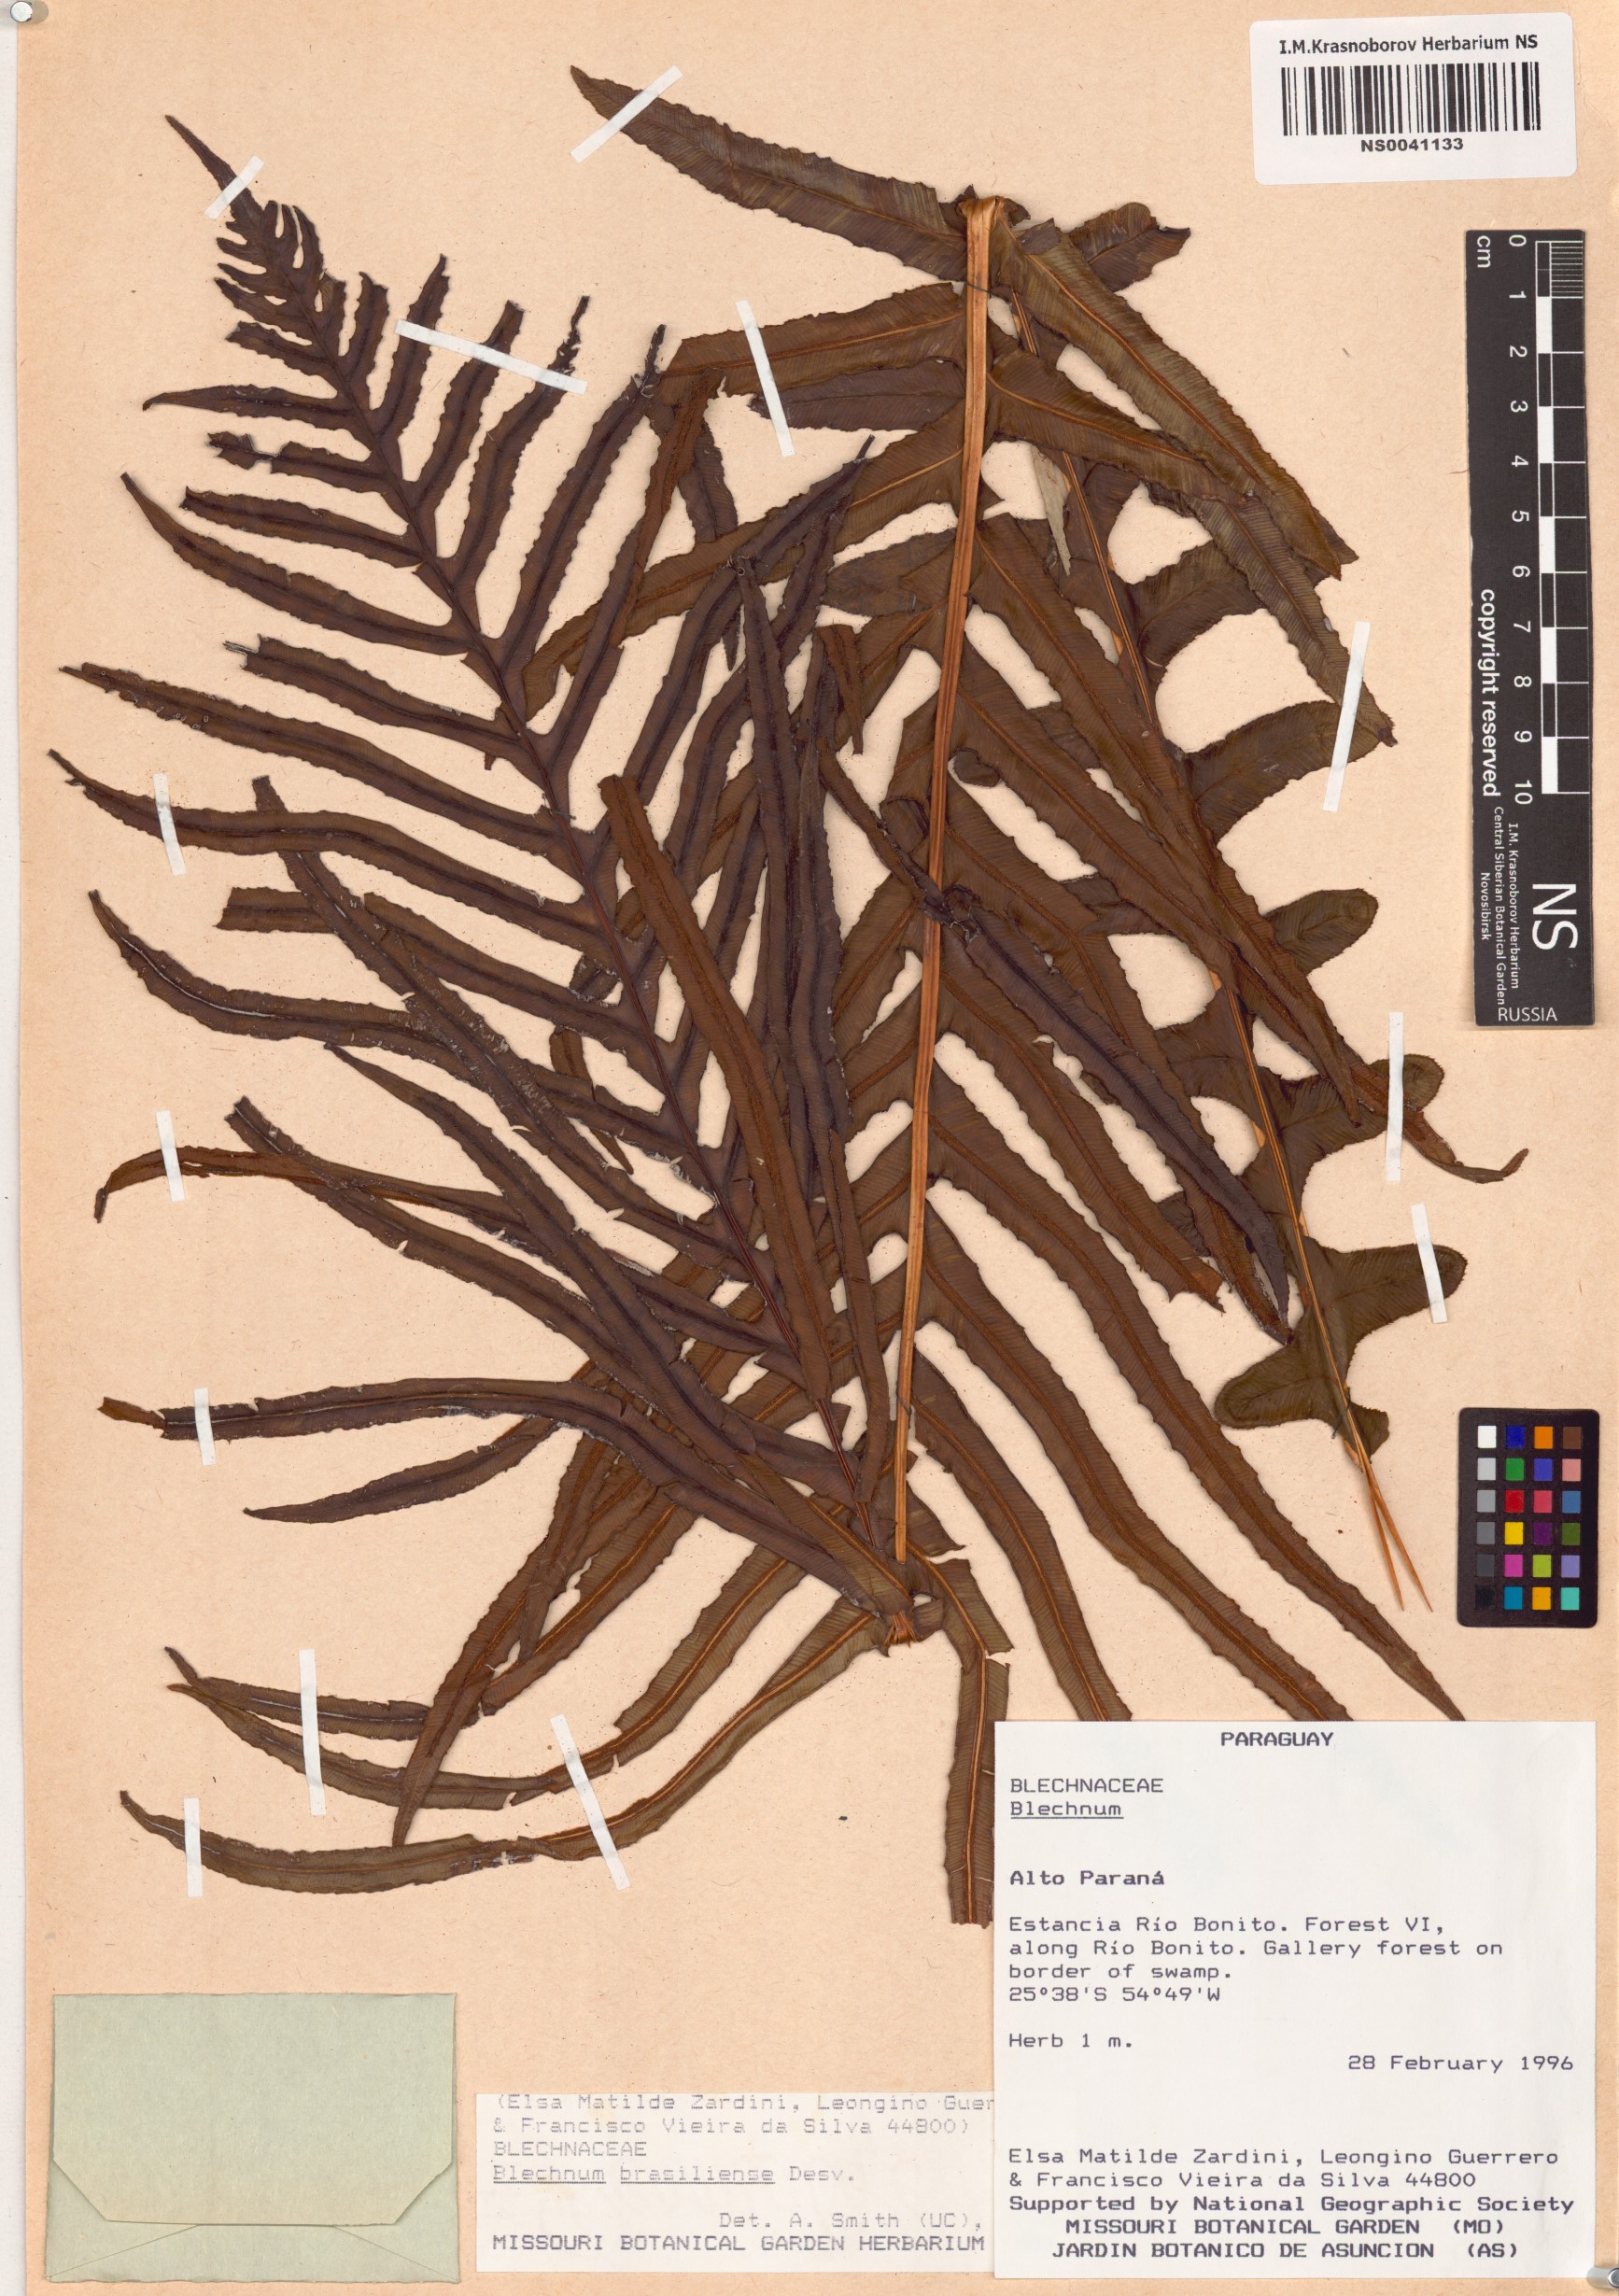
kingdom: Plantae
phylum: Tracheophyta
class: Polypodiopsida
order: Polypodiales
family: Blechnaceae
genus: Neoblechnum
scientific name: Neoblechnum brasiliense
